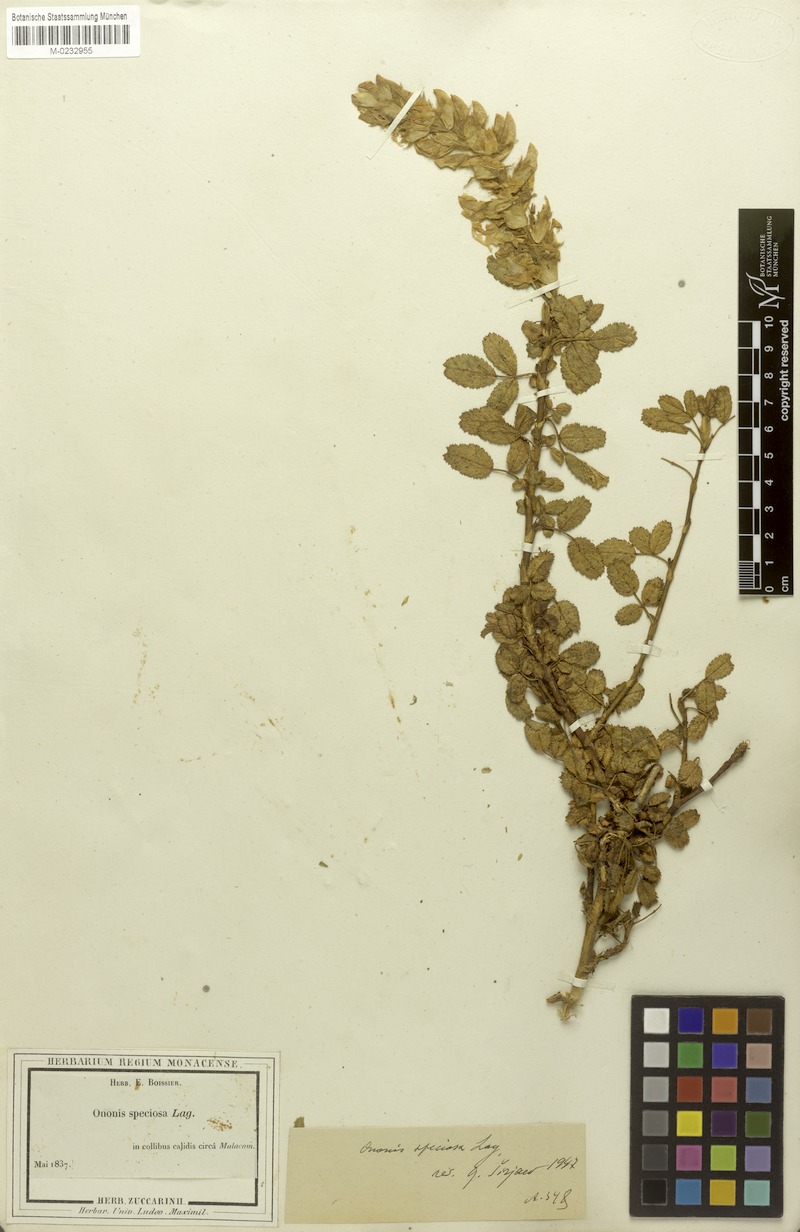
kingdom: Plantae
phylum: Tracheophyta
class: Magnoliopsida
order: Fabales
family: Fabaceae
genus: Ononis
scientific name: Ononis speciosa
